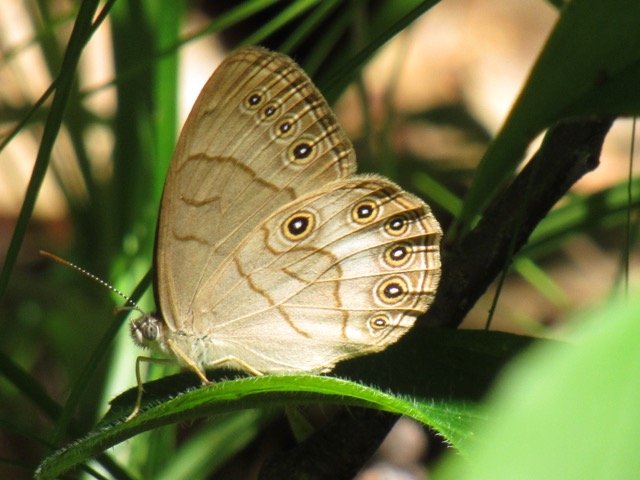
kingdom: Animalia
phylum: Arthropoda
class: Insecta
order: Lepidoptera
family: Nymphalidae
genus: Lethe
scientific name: Lethe eurydice
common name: Appalachian Eyed Brown
